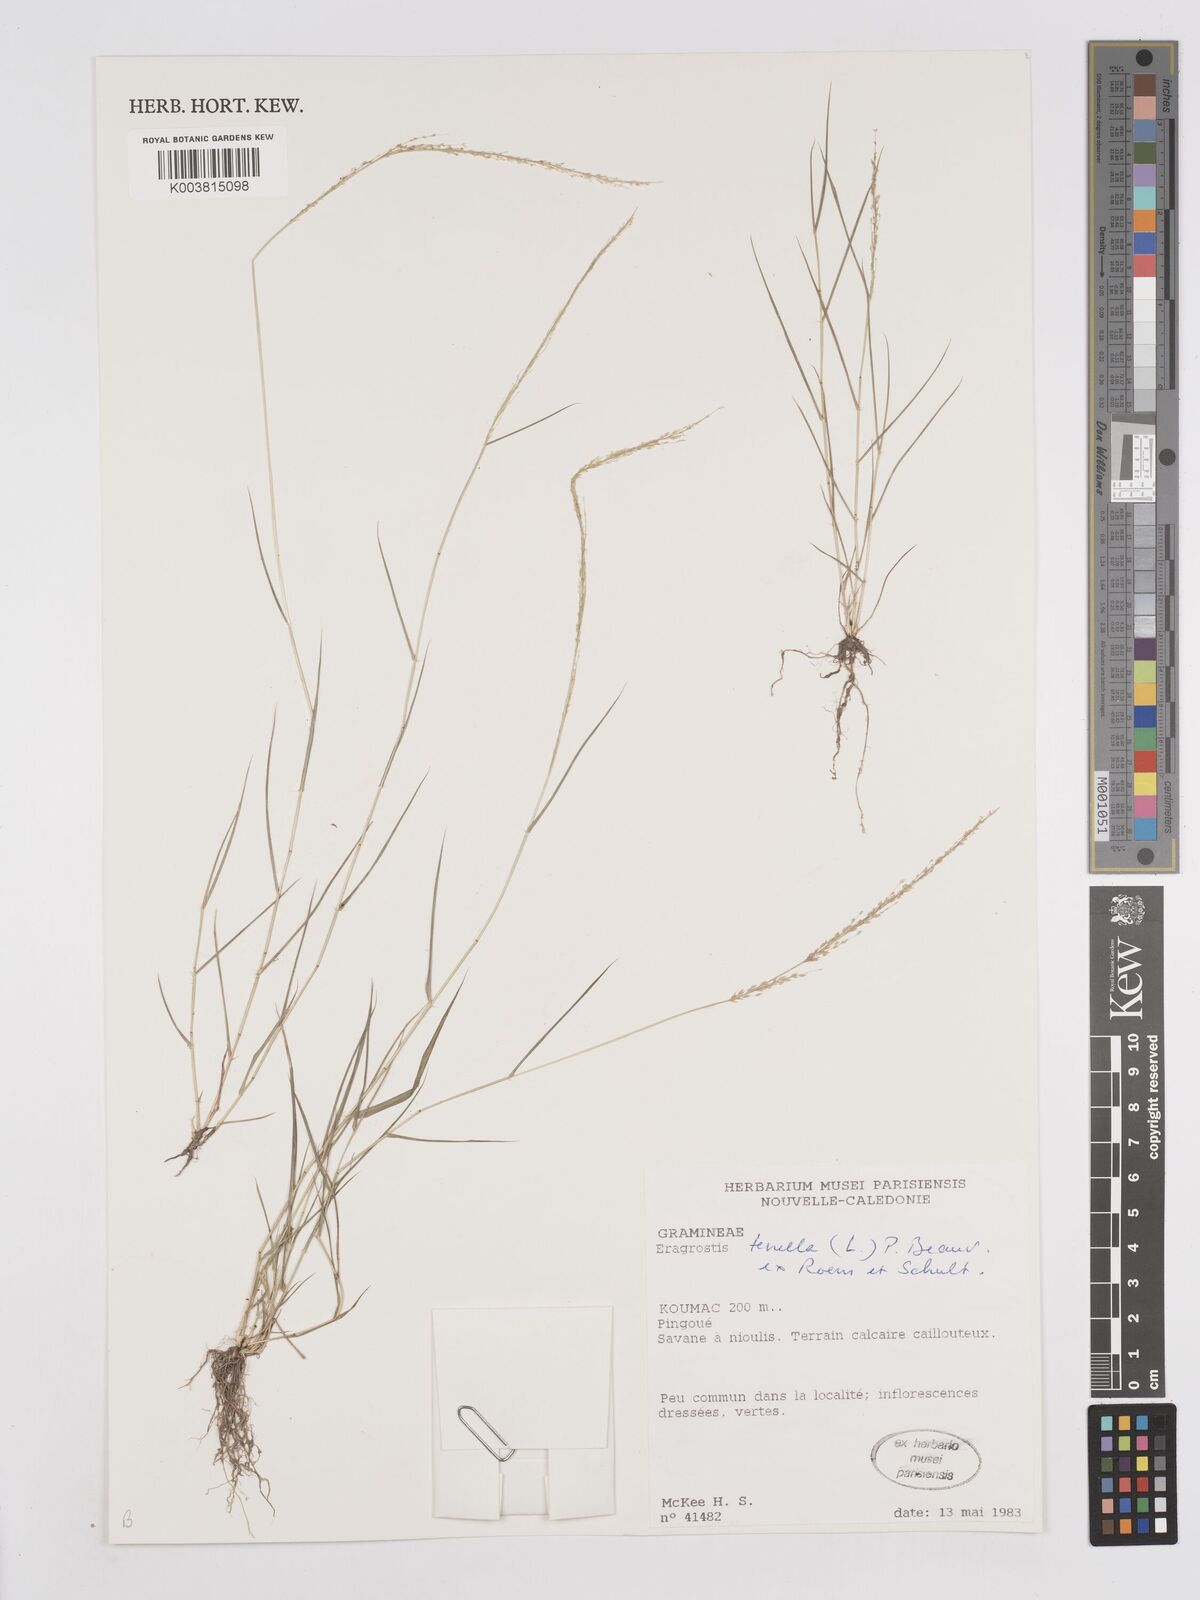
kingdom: Plantae
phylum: Tracheophyta
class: Liliopsida
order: Poales
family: Poaceae
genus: Eragrostis
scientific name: Eragrostis tenella
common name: Japanese lovegrass
